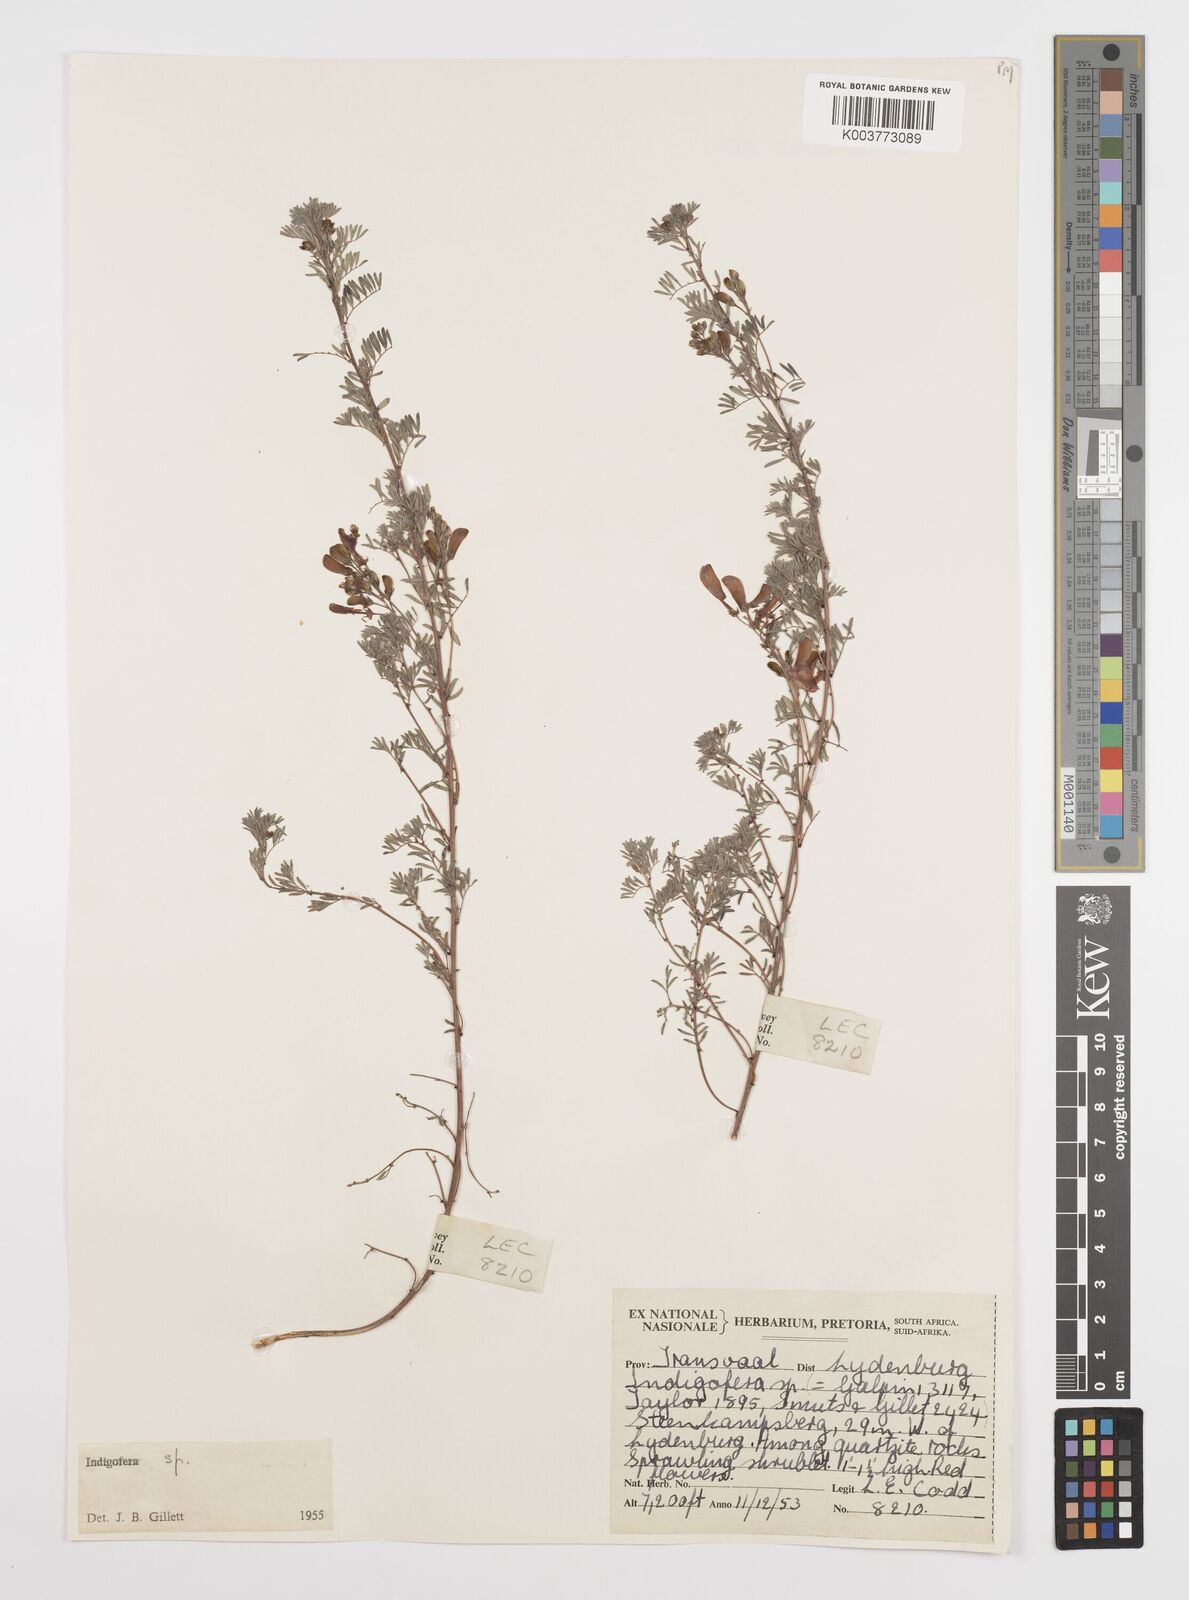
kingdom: Plantae
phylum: Tracheophyta
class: Magnoliopsida
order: Fabales
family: Fabaceae
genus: Indigofera
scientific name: Indigofera
